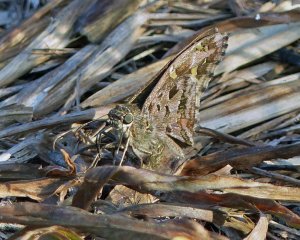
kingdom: Animalia
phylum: Arthropoda
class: Insecta
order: Lepidoptera
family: Hesperiidae
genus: Urbanus
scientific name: Urbanus dorantes
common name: Dorantes Longtail
